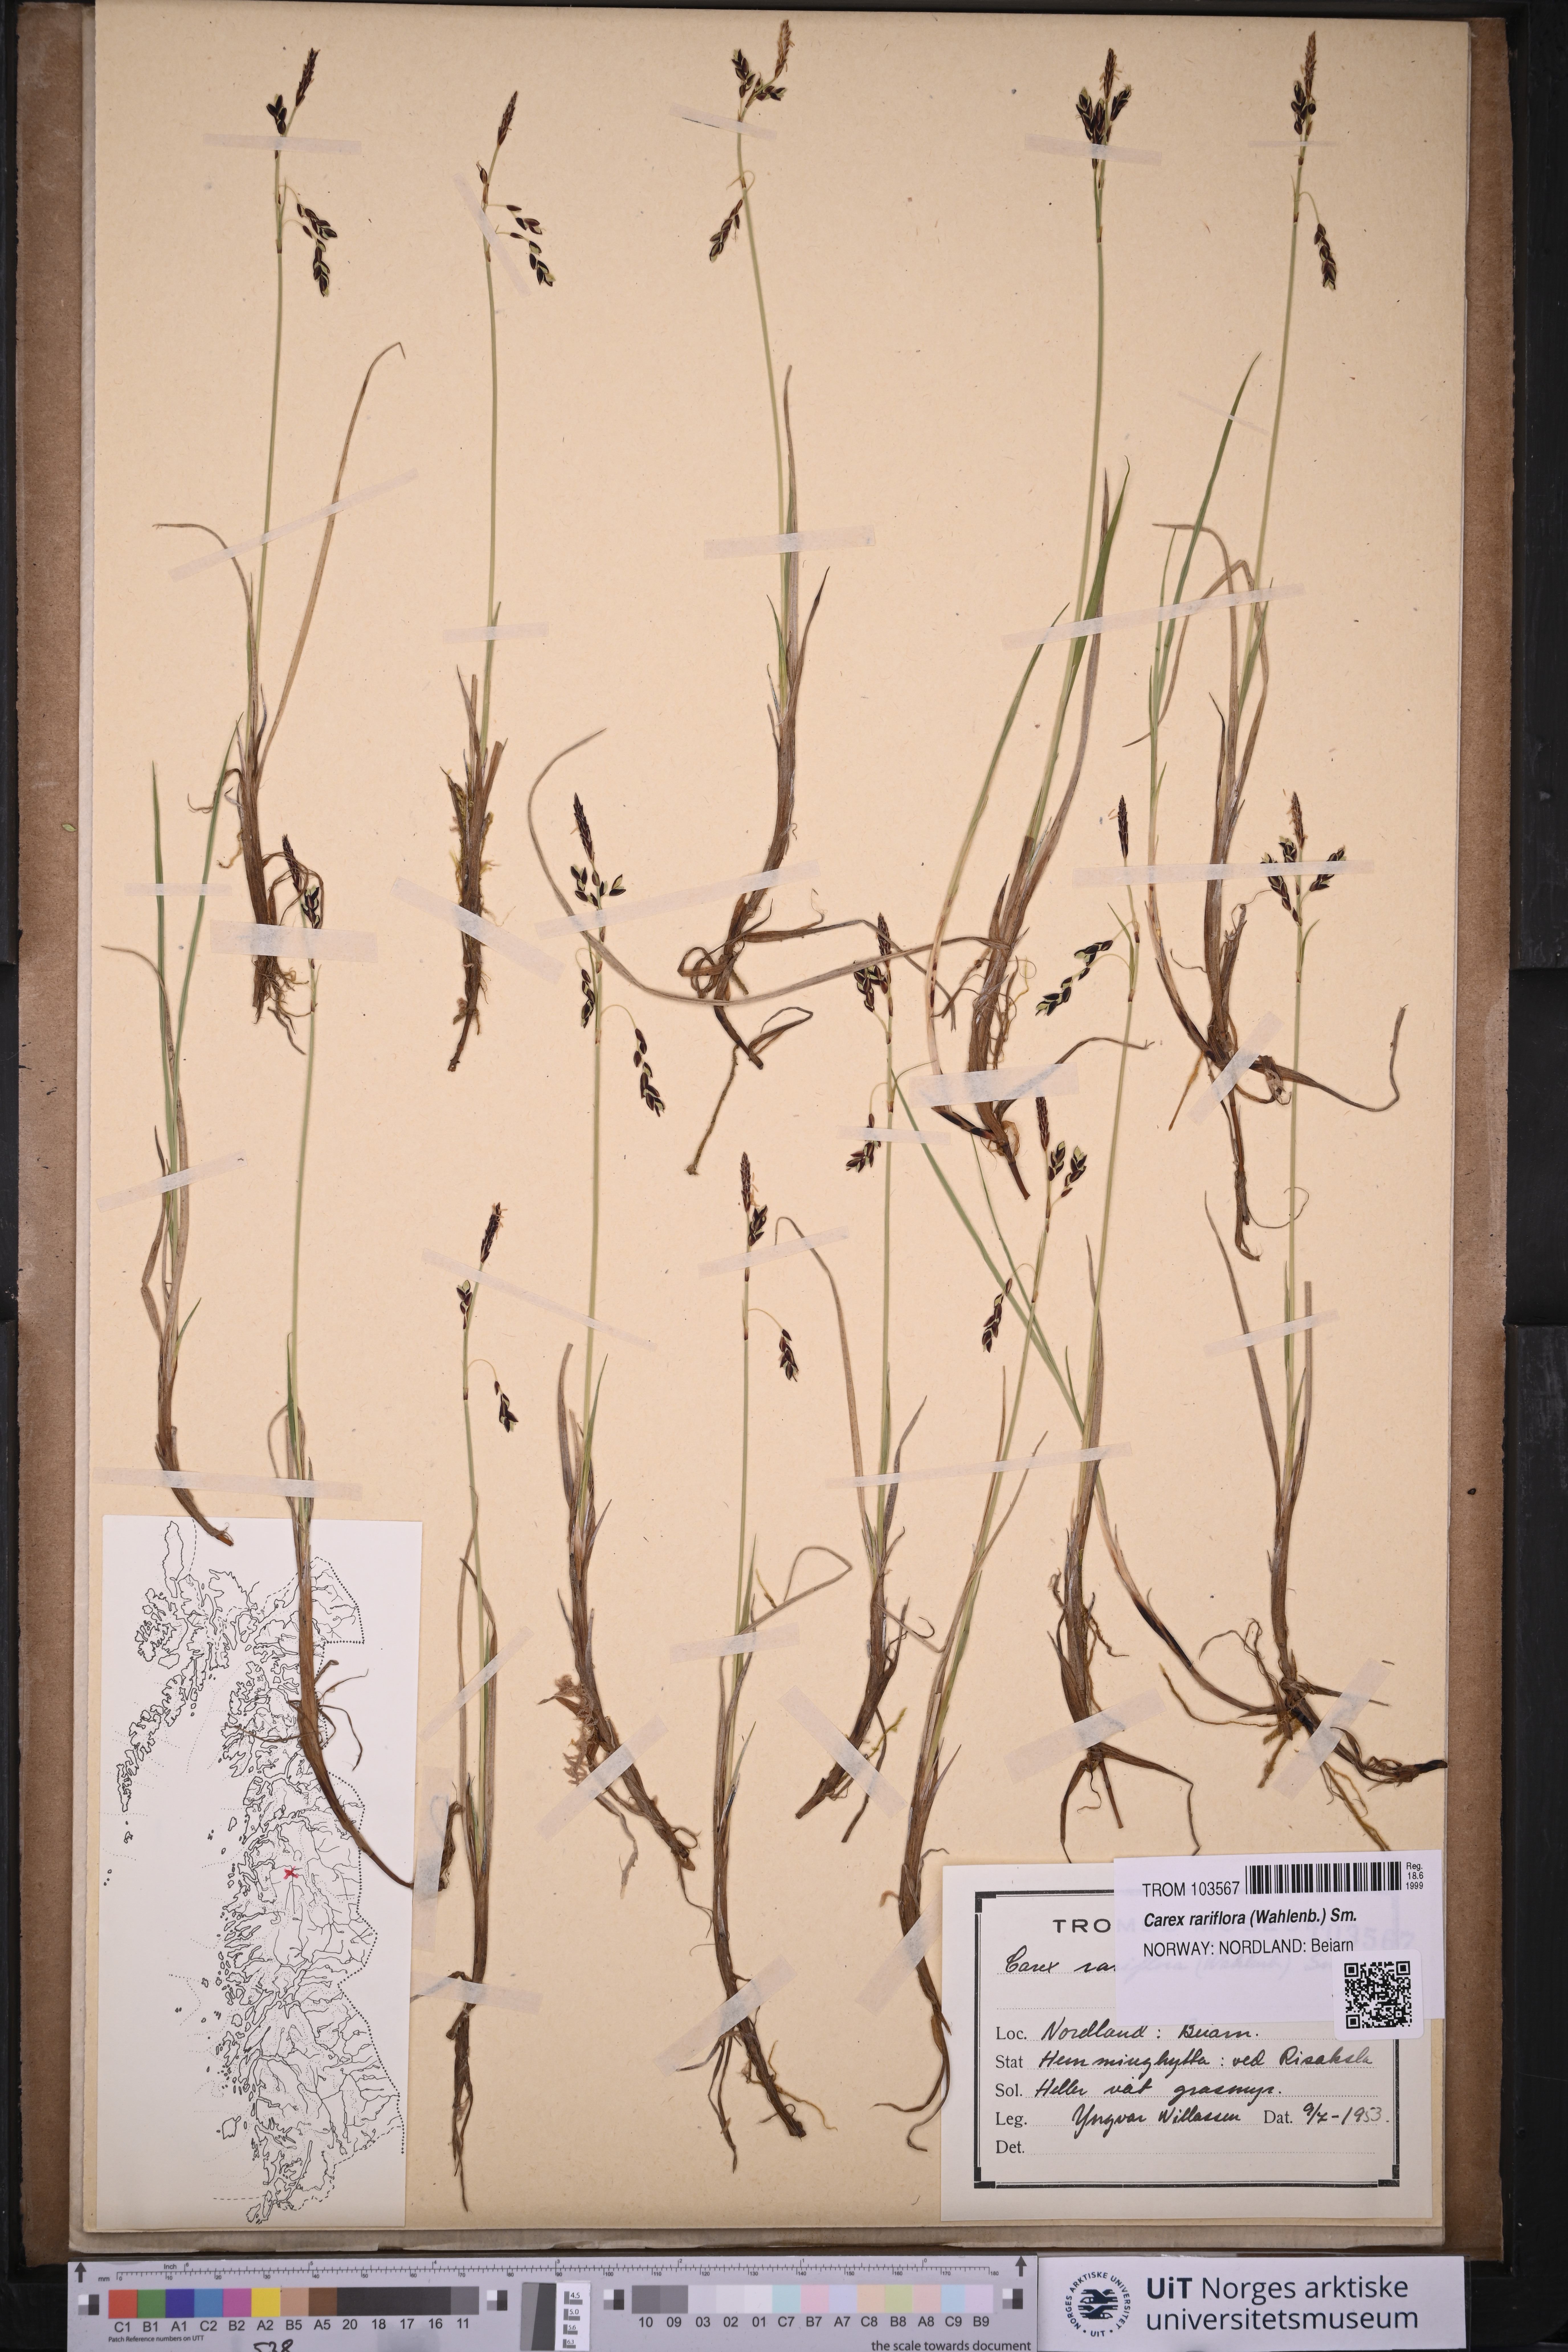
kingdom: Plantae
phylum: Tracheophyta
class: Liliopsida
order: Poales
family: Cyperaceae
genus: Carex
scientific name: Carex rariflora
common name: Loose-flowered alpine sedge
